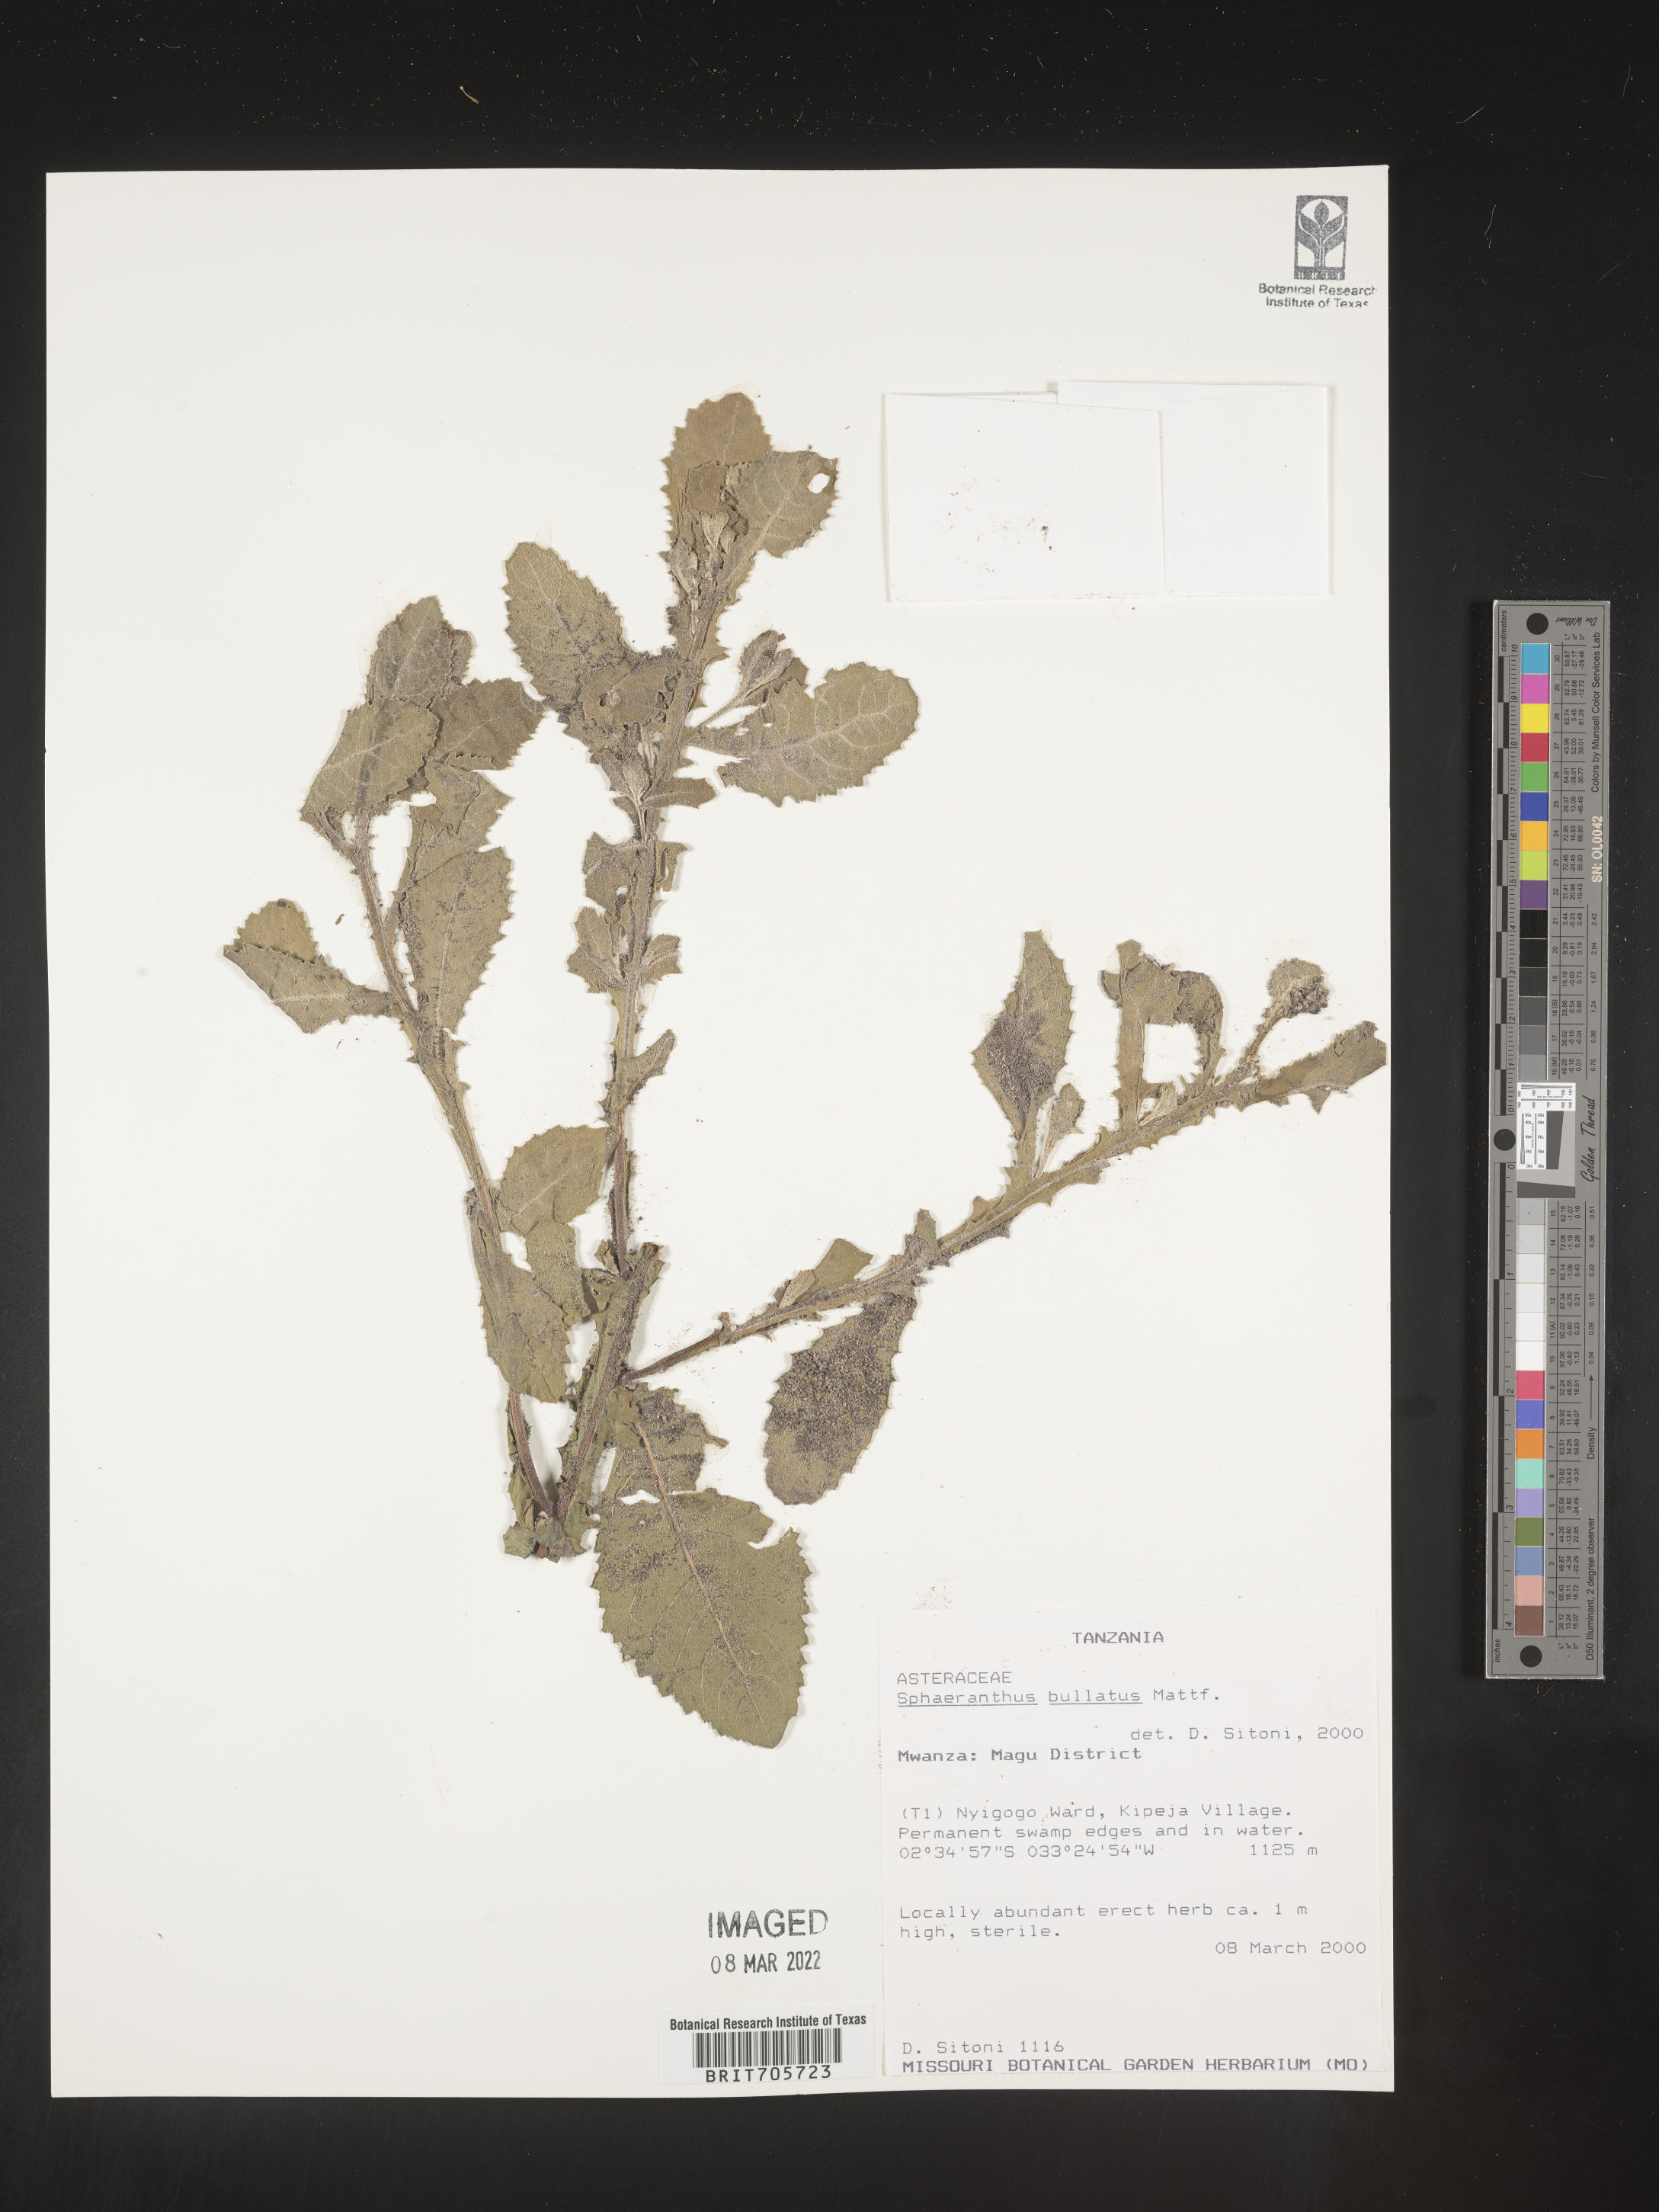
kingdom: Plantae
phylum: Tracheophyta
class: Magnoliopsida
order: Asterales
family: Asteraceae
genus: Sphaeranthus
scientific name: Sphaeranthus
